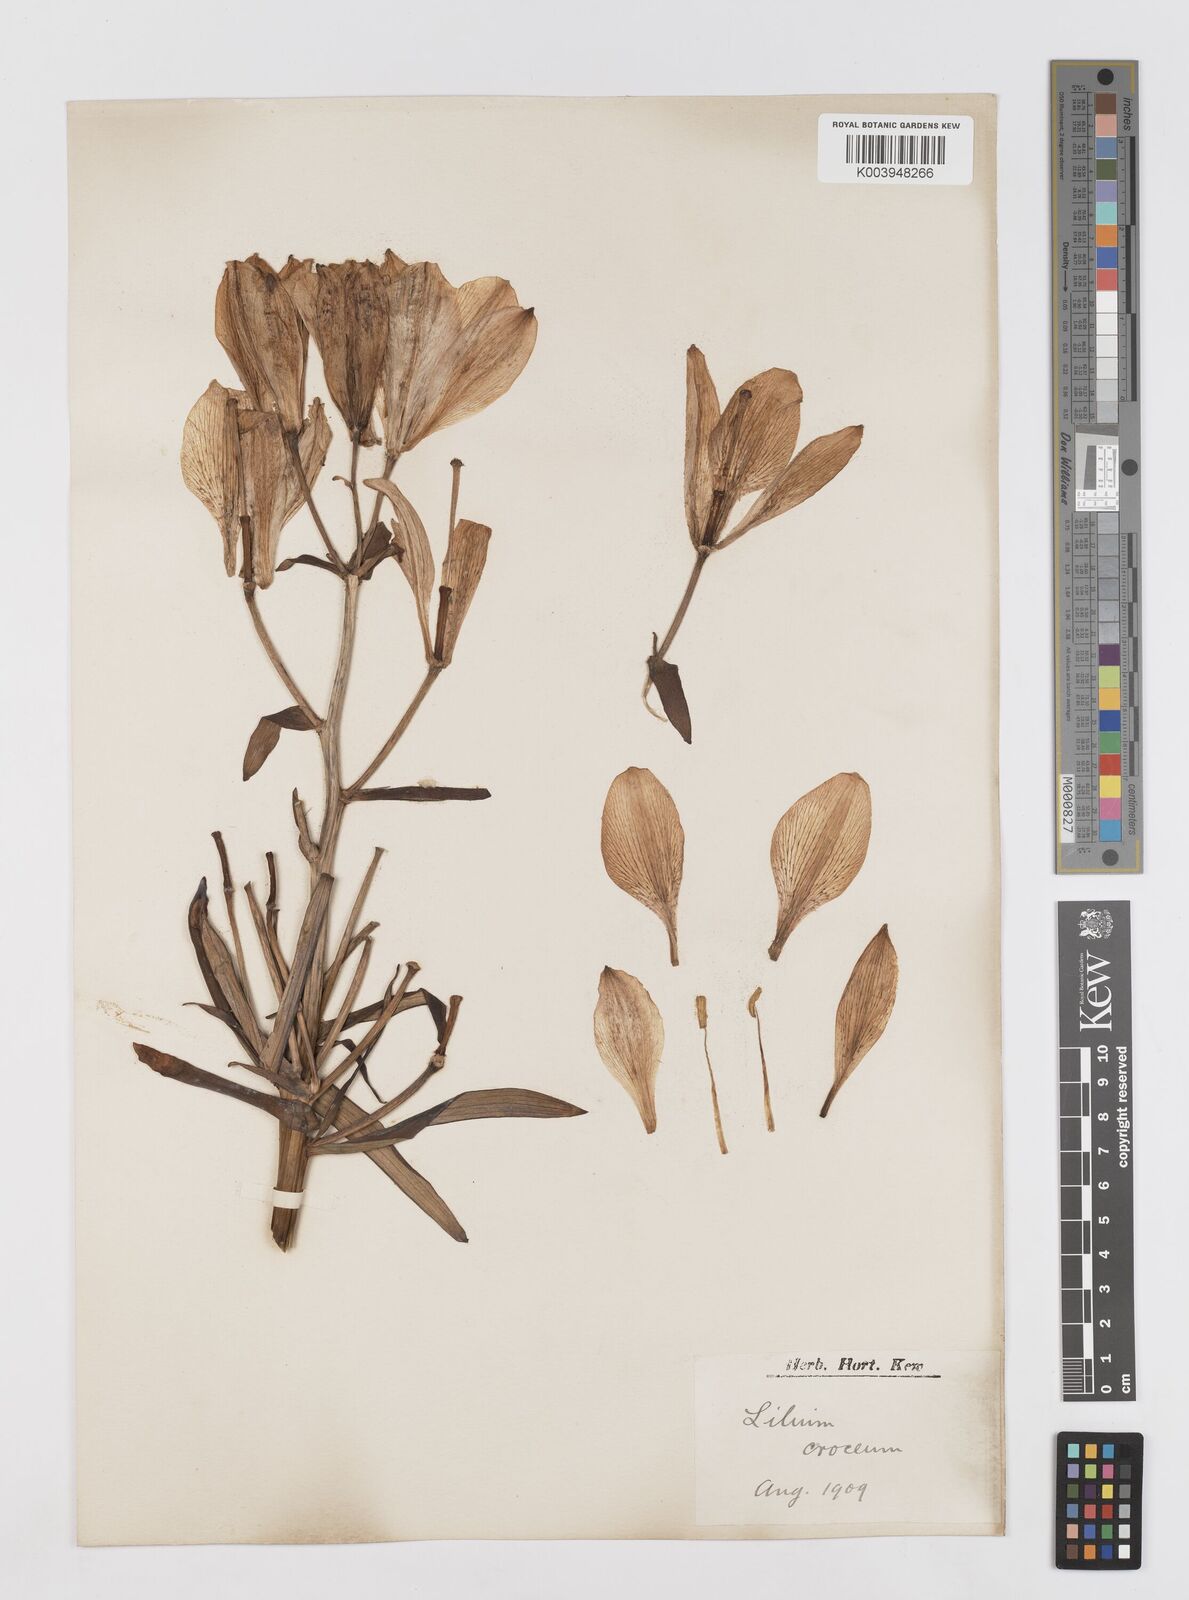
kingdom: Plantae
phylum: Tracheophyta
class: Liliopsida
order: Liliales
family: Liliaceae
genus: Lilium
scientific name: Lilium bulbiferum
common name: Orange lily
